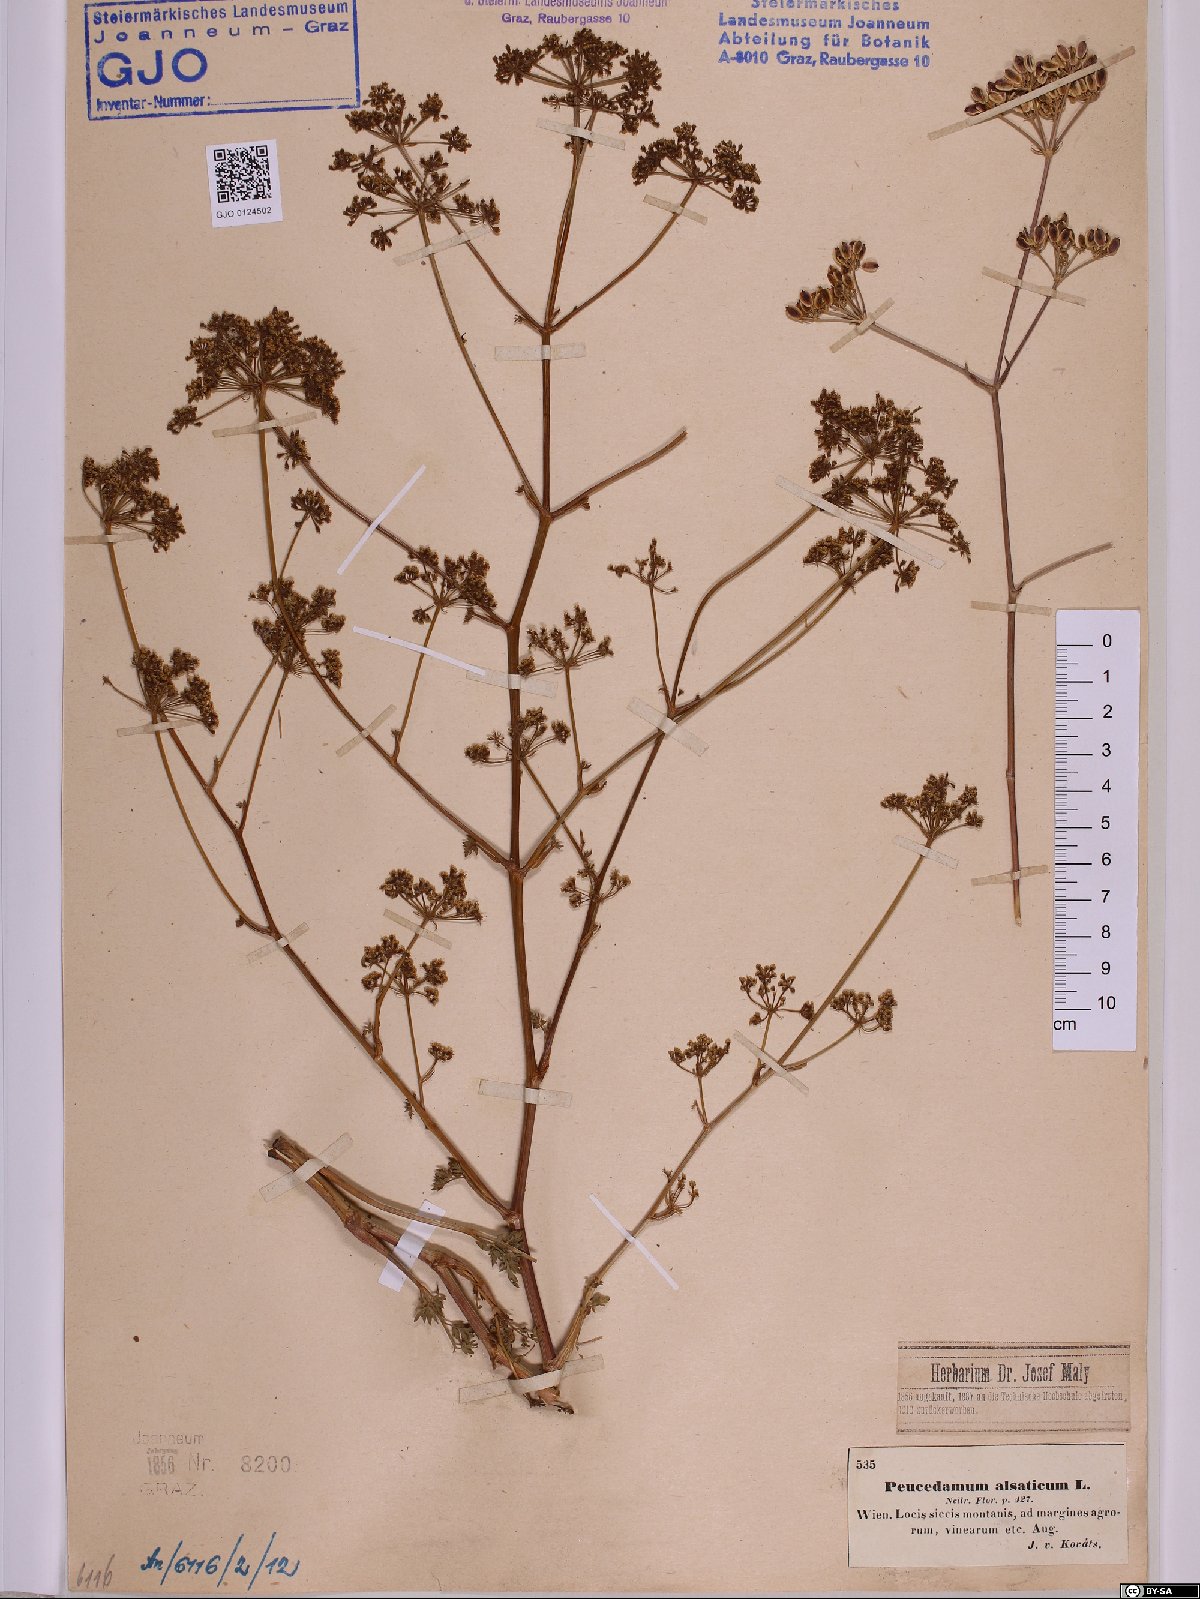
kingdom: Plantae
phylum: Tracheophyta
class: Magnoliopsida
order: Apiales
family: Apiaceae
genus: Xanthoselinum
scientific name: Xanthoselinum alsaticum
